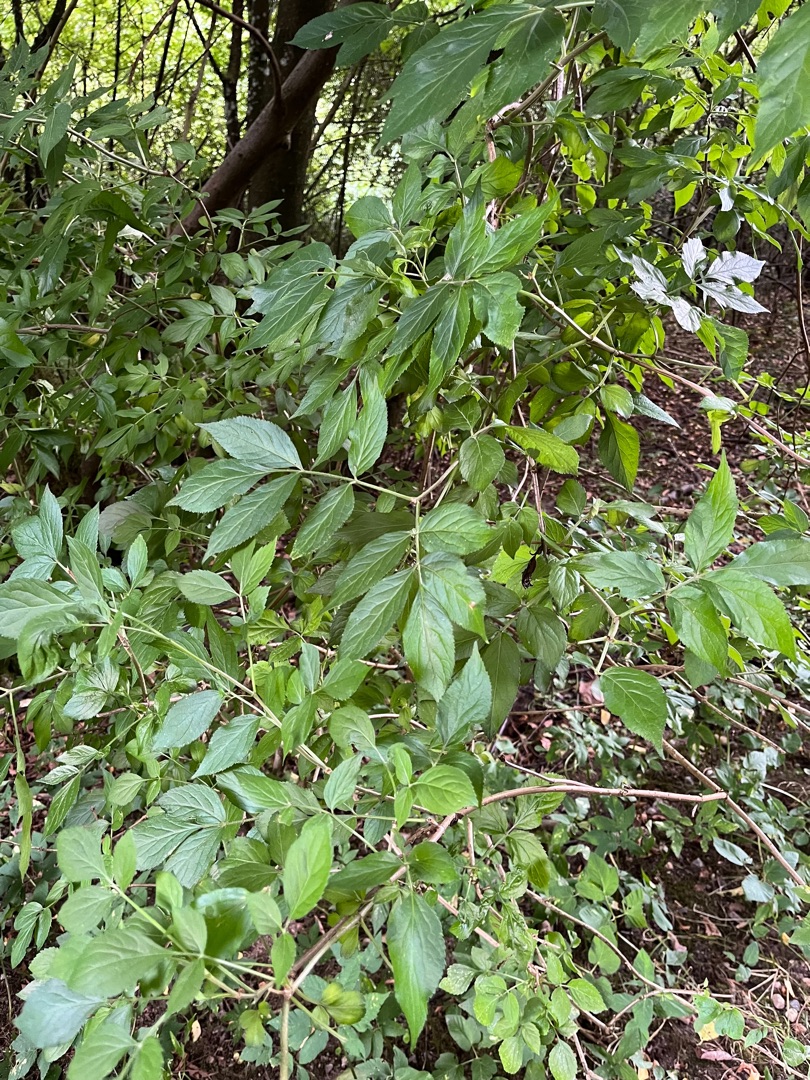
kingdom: Plantae
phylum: Tracheophyta
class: Magnoliopsida
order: Dipsacales
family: Viburnaceae
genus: Sambucus
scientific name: Sambucus
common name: Hyldeslægten
